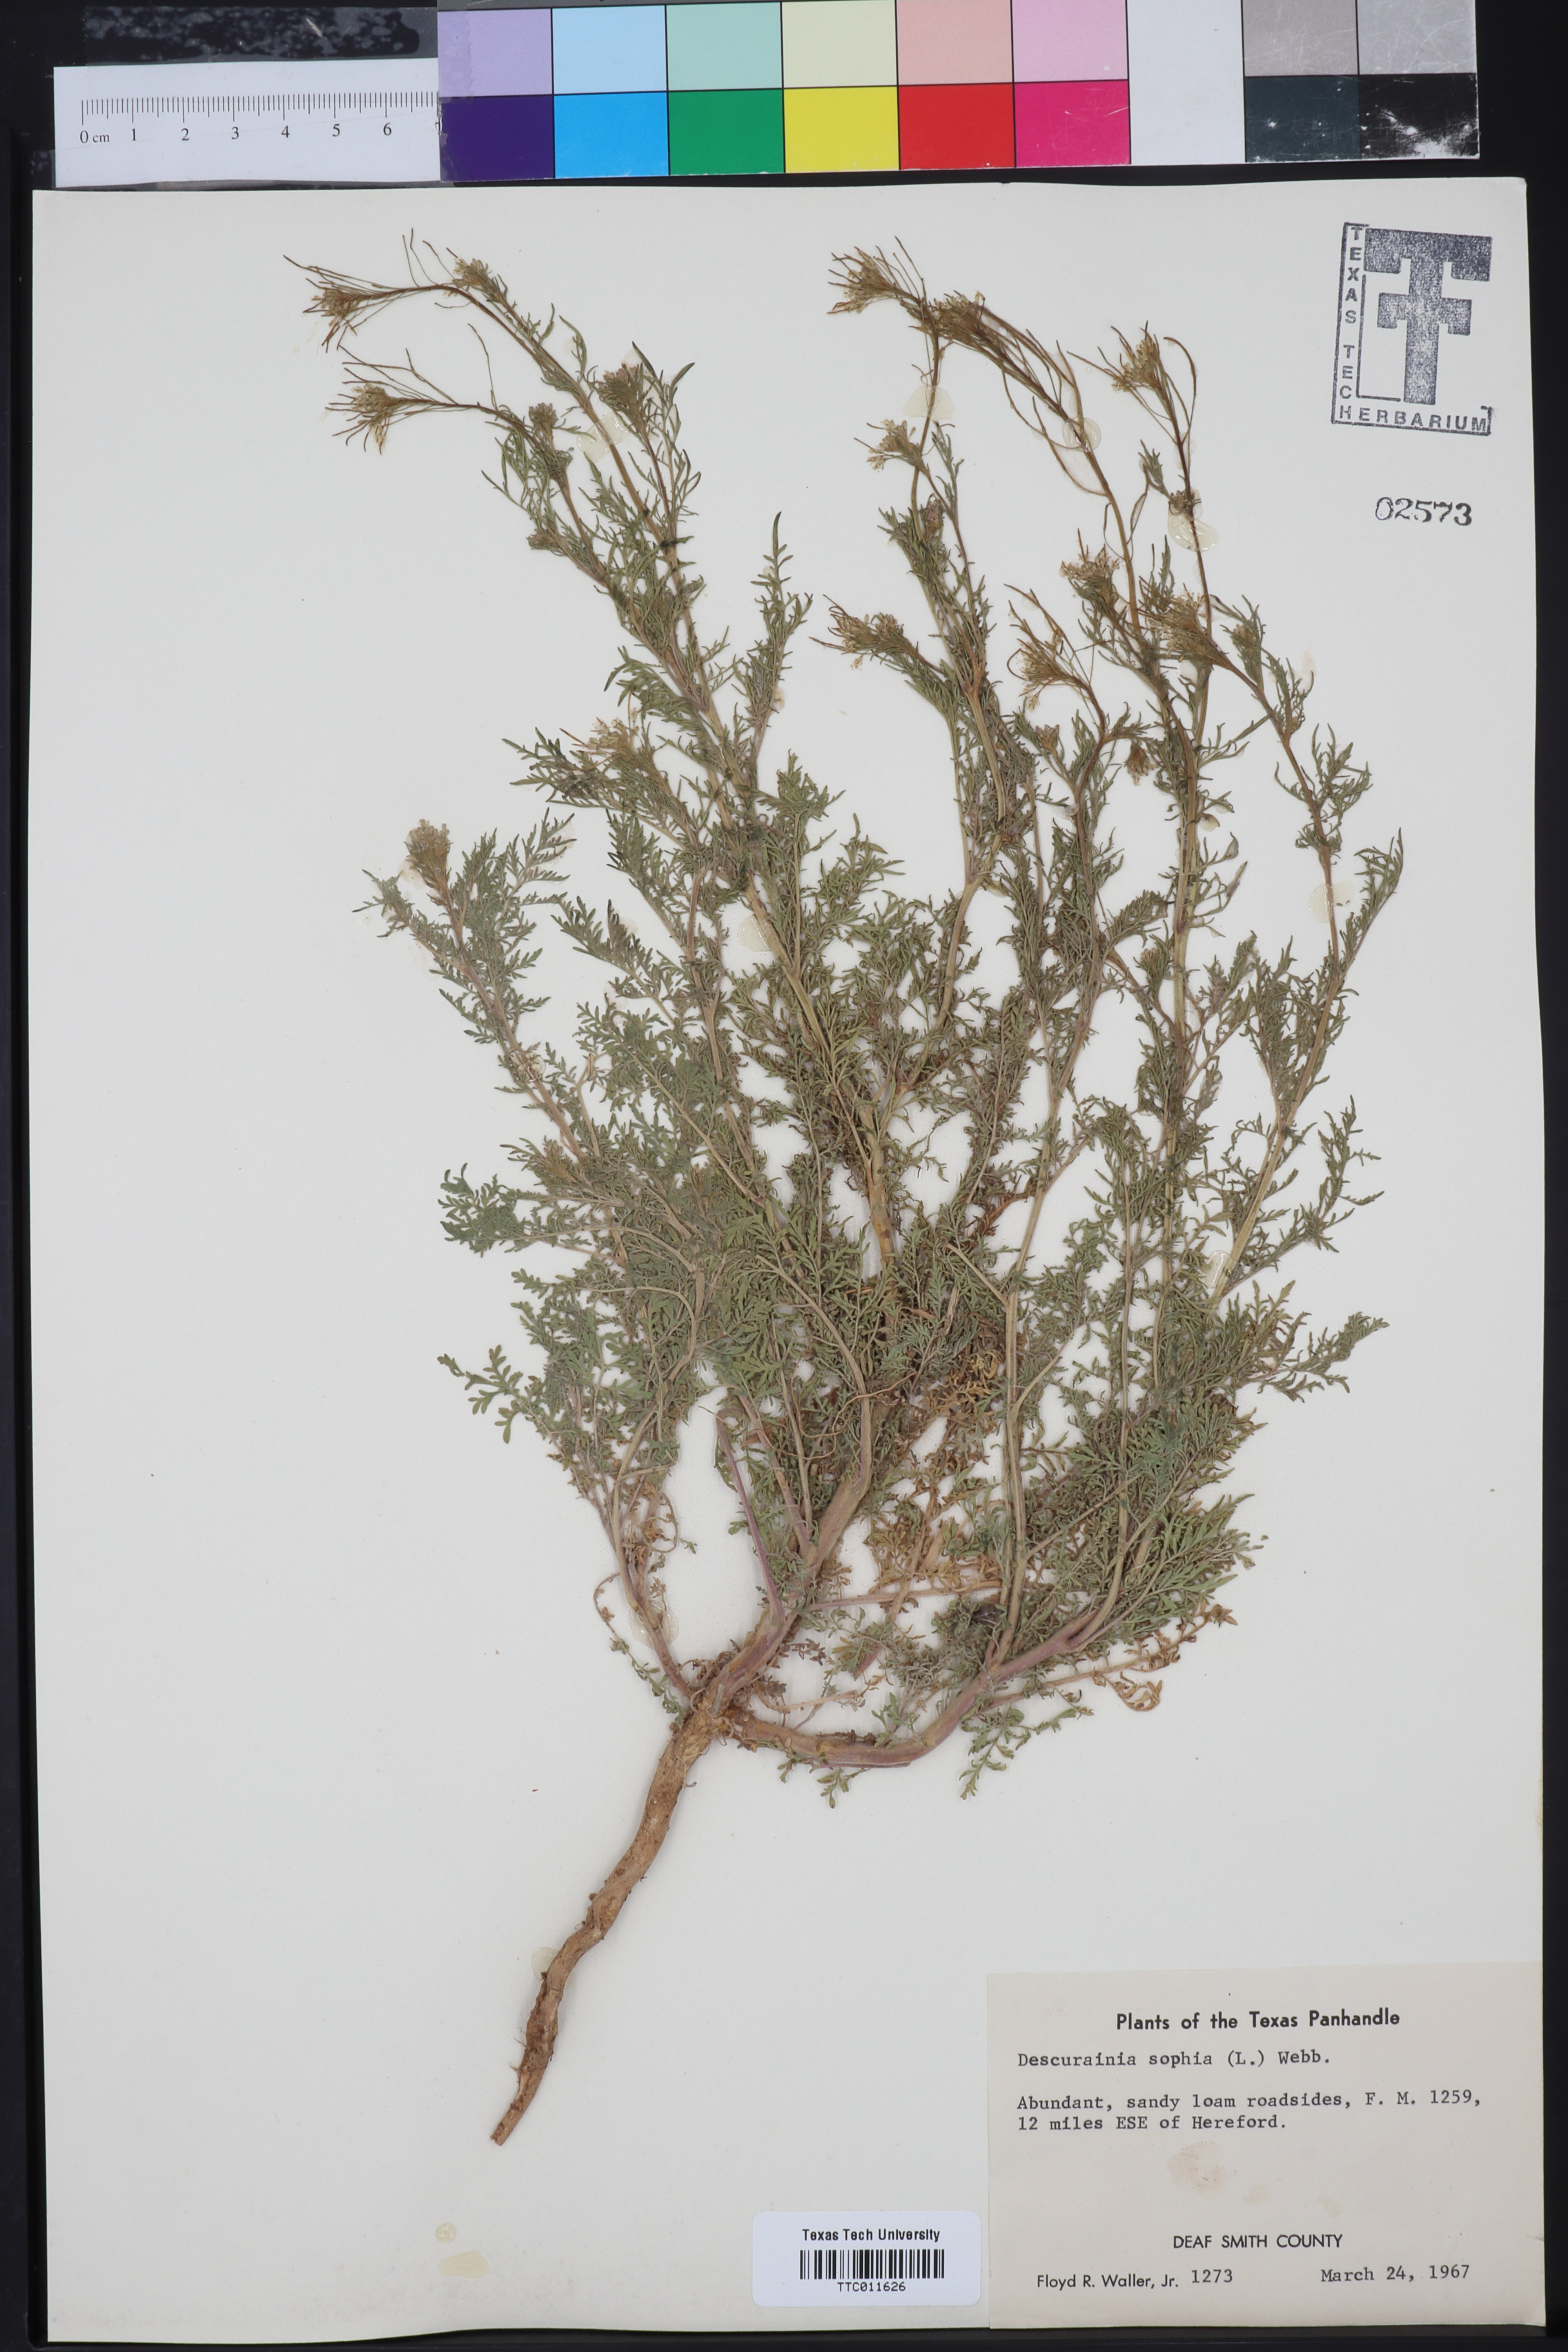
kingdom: Plantae
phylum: Tracheophyta
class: Magnoliopsida
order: Brassicales
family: Brassicaceae
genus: Descurainia
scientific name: Descurainia sophia
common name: Flixweed
